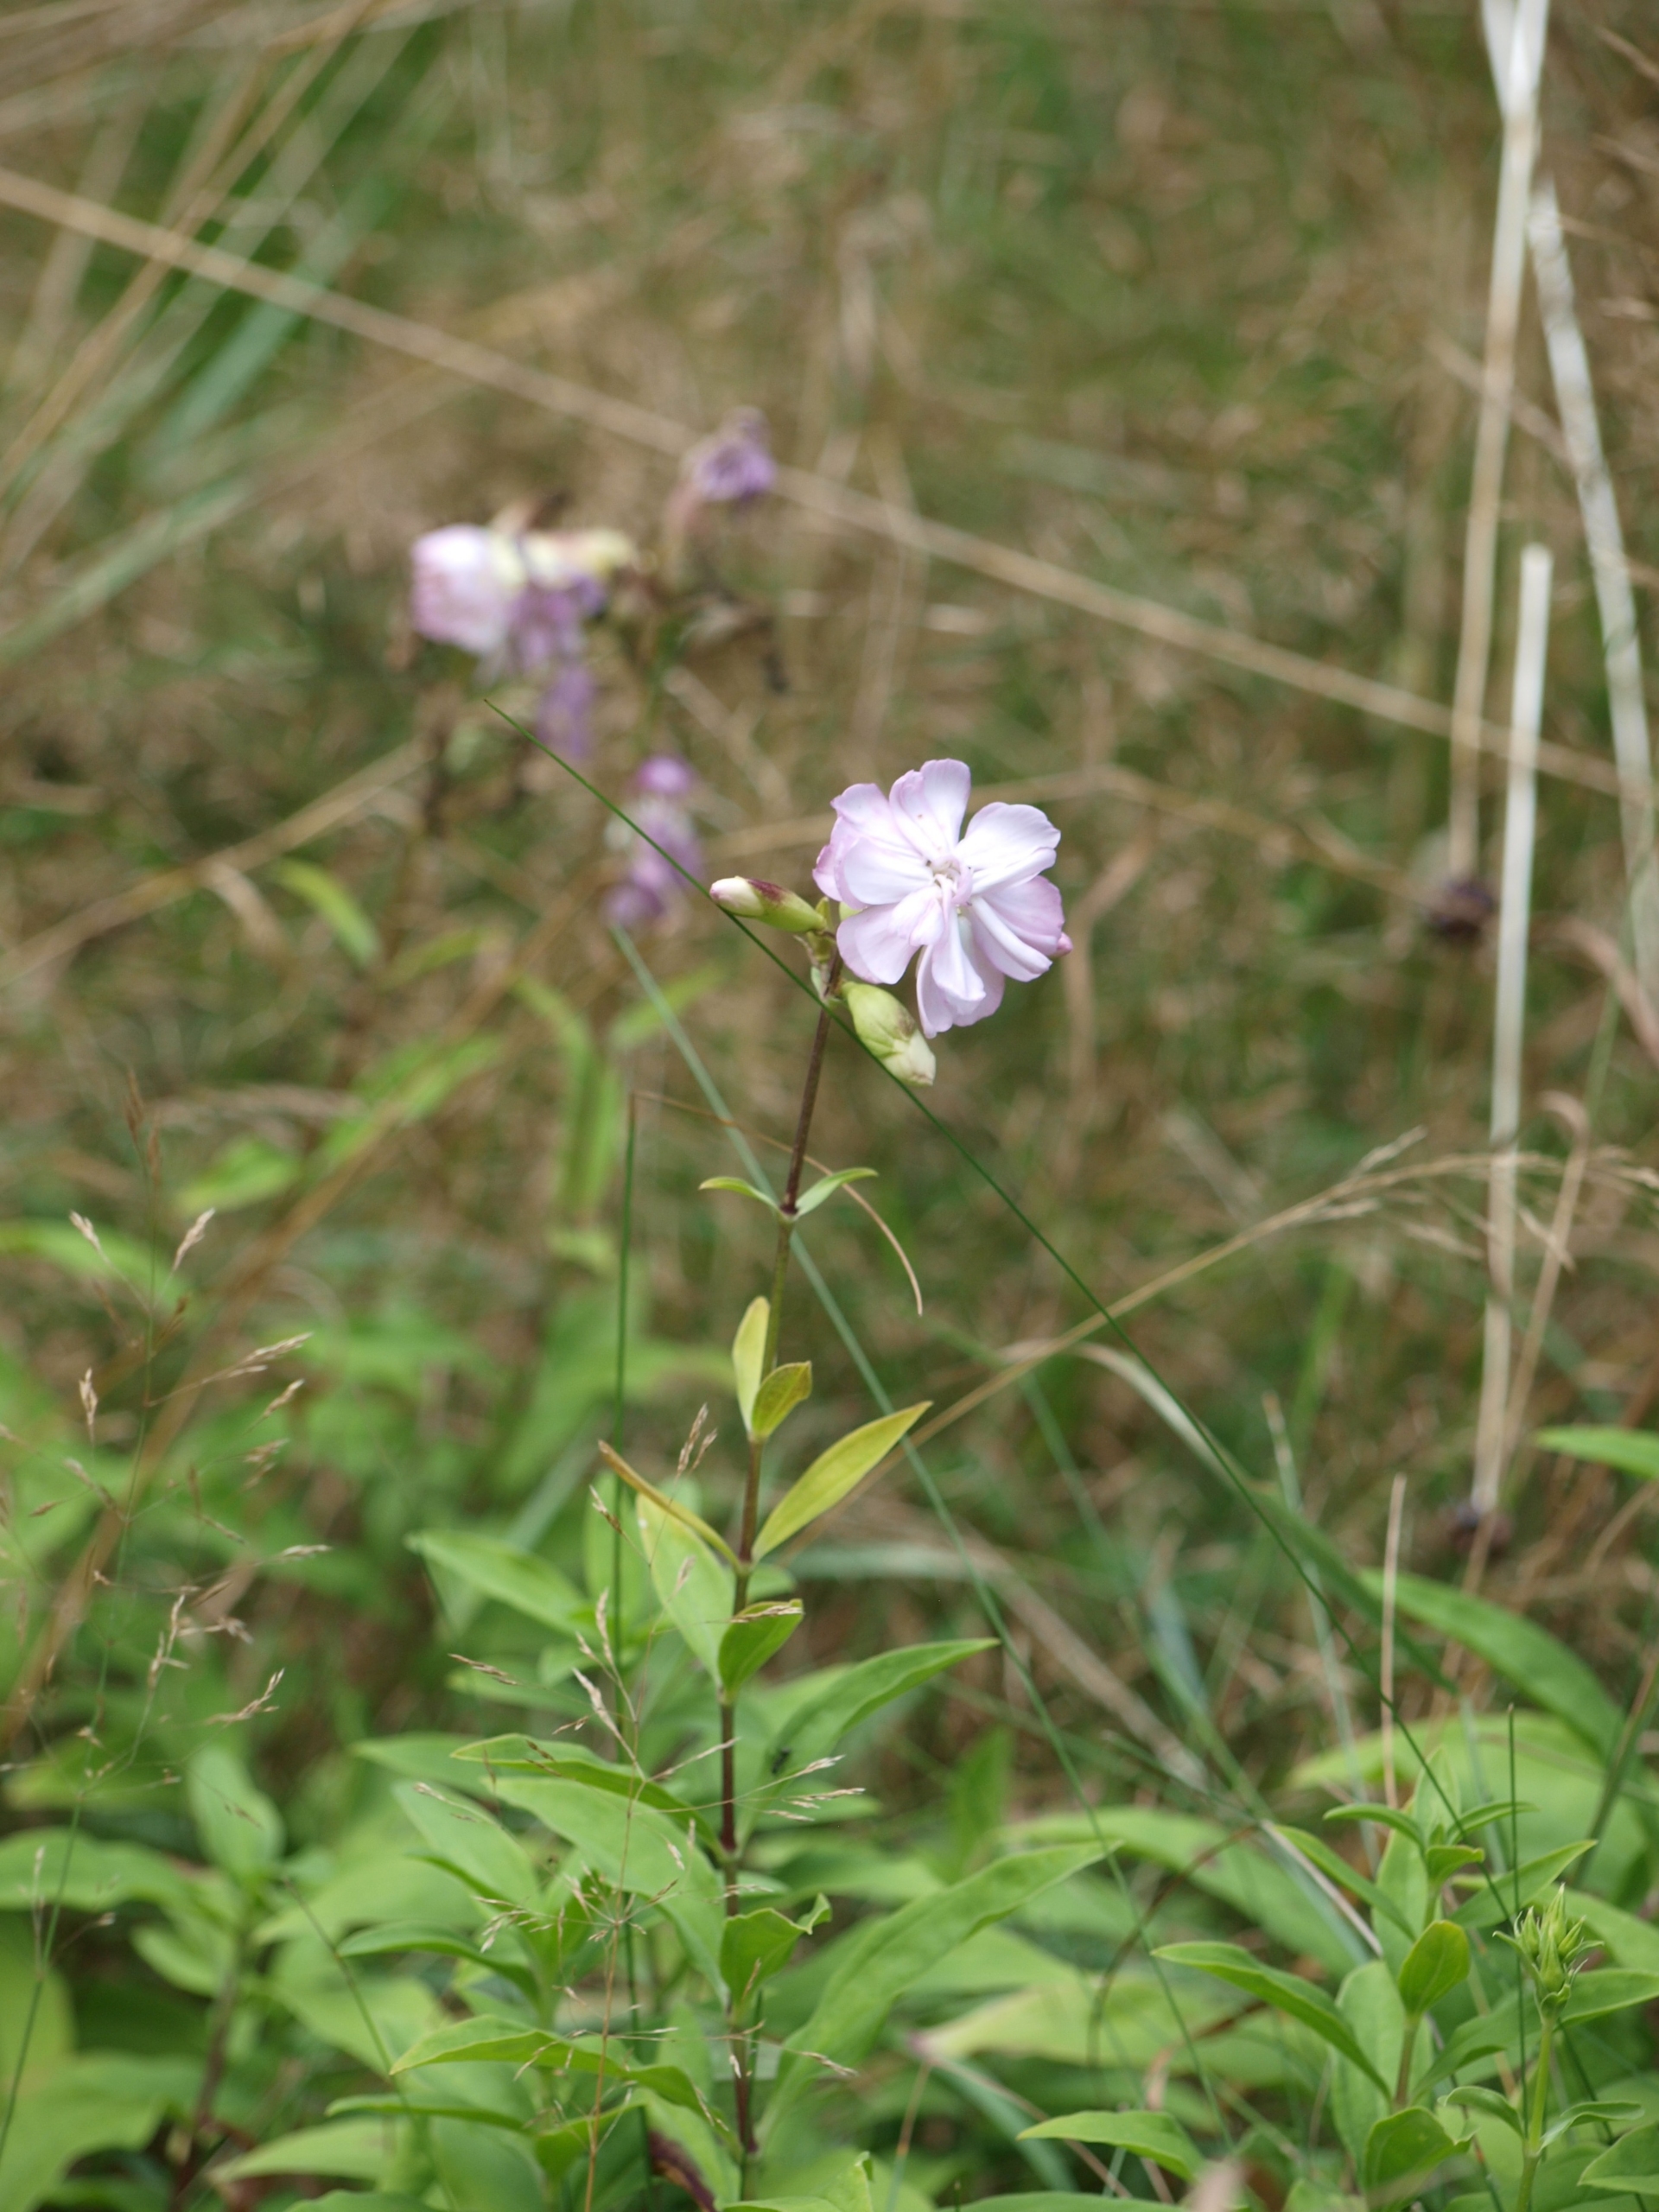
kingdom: Plantae
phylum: Tracheophyta
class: Magnoliopsida
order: Caryophyllales
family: Caryophyllaceae
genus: Saponaria
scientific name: Saponaria officinalis
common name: Sæbeurt
